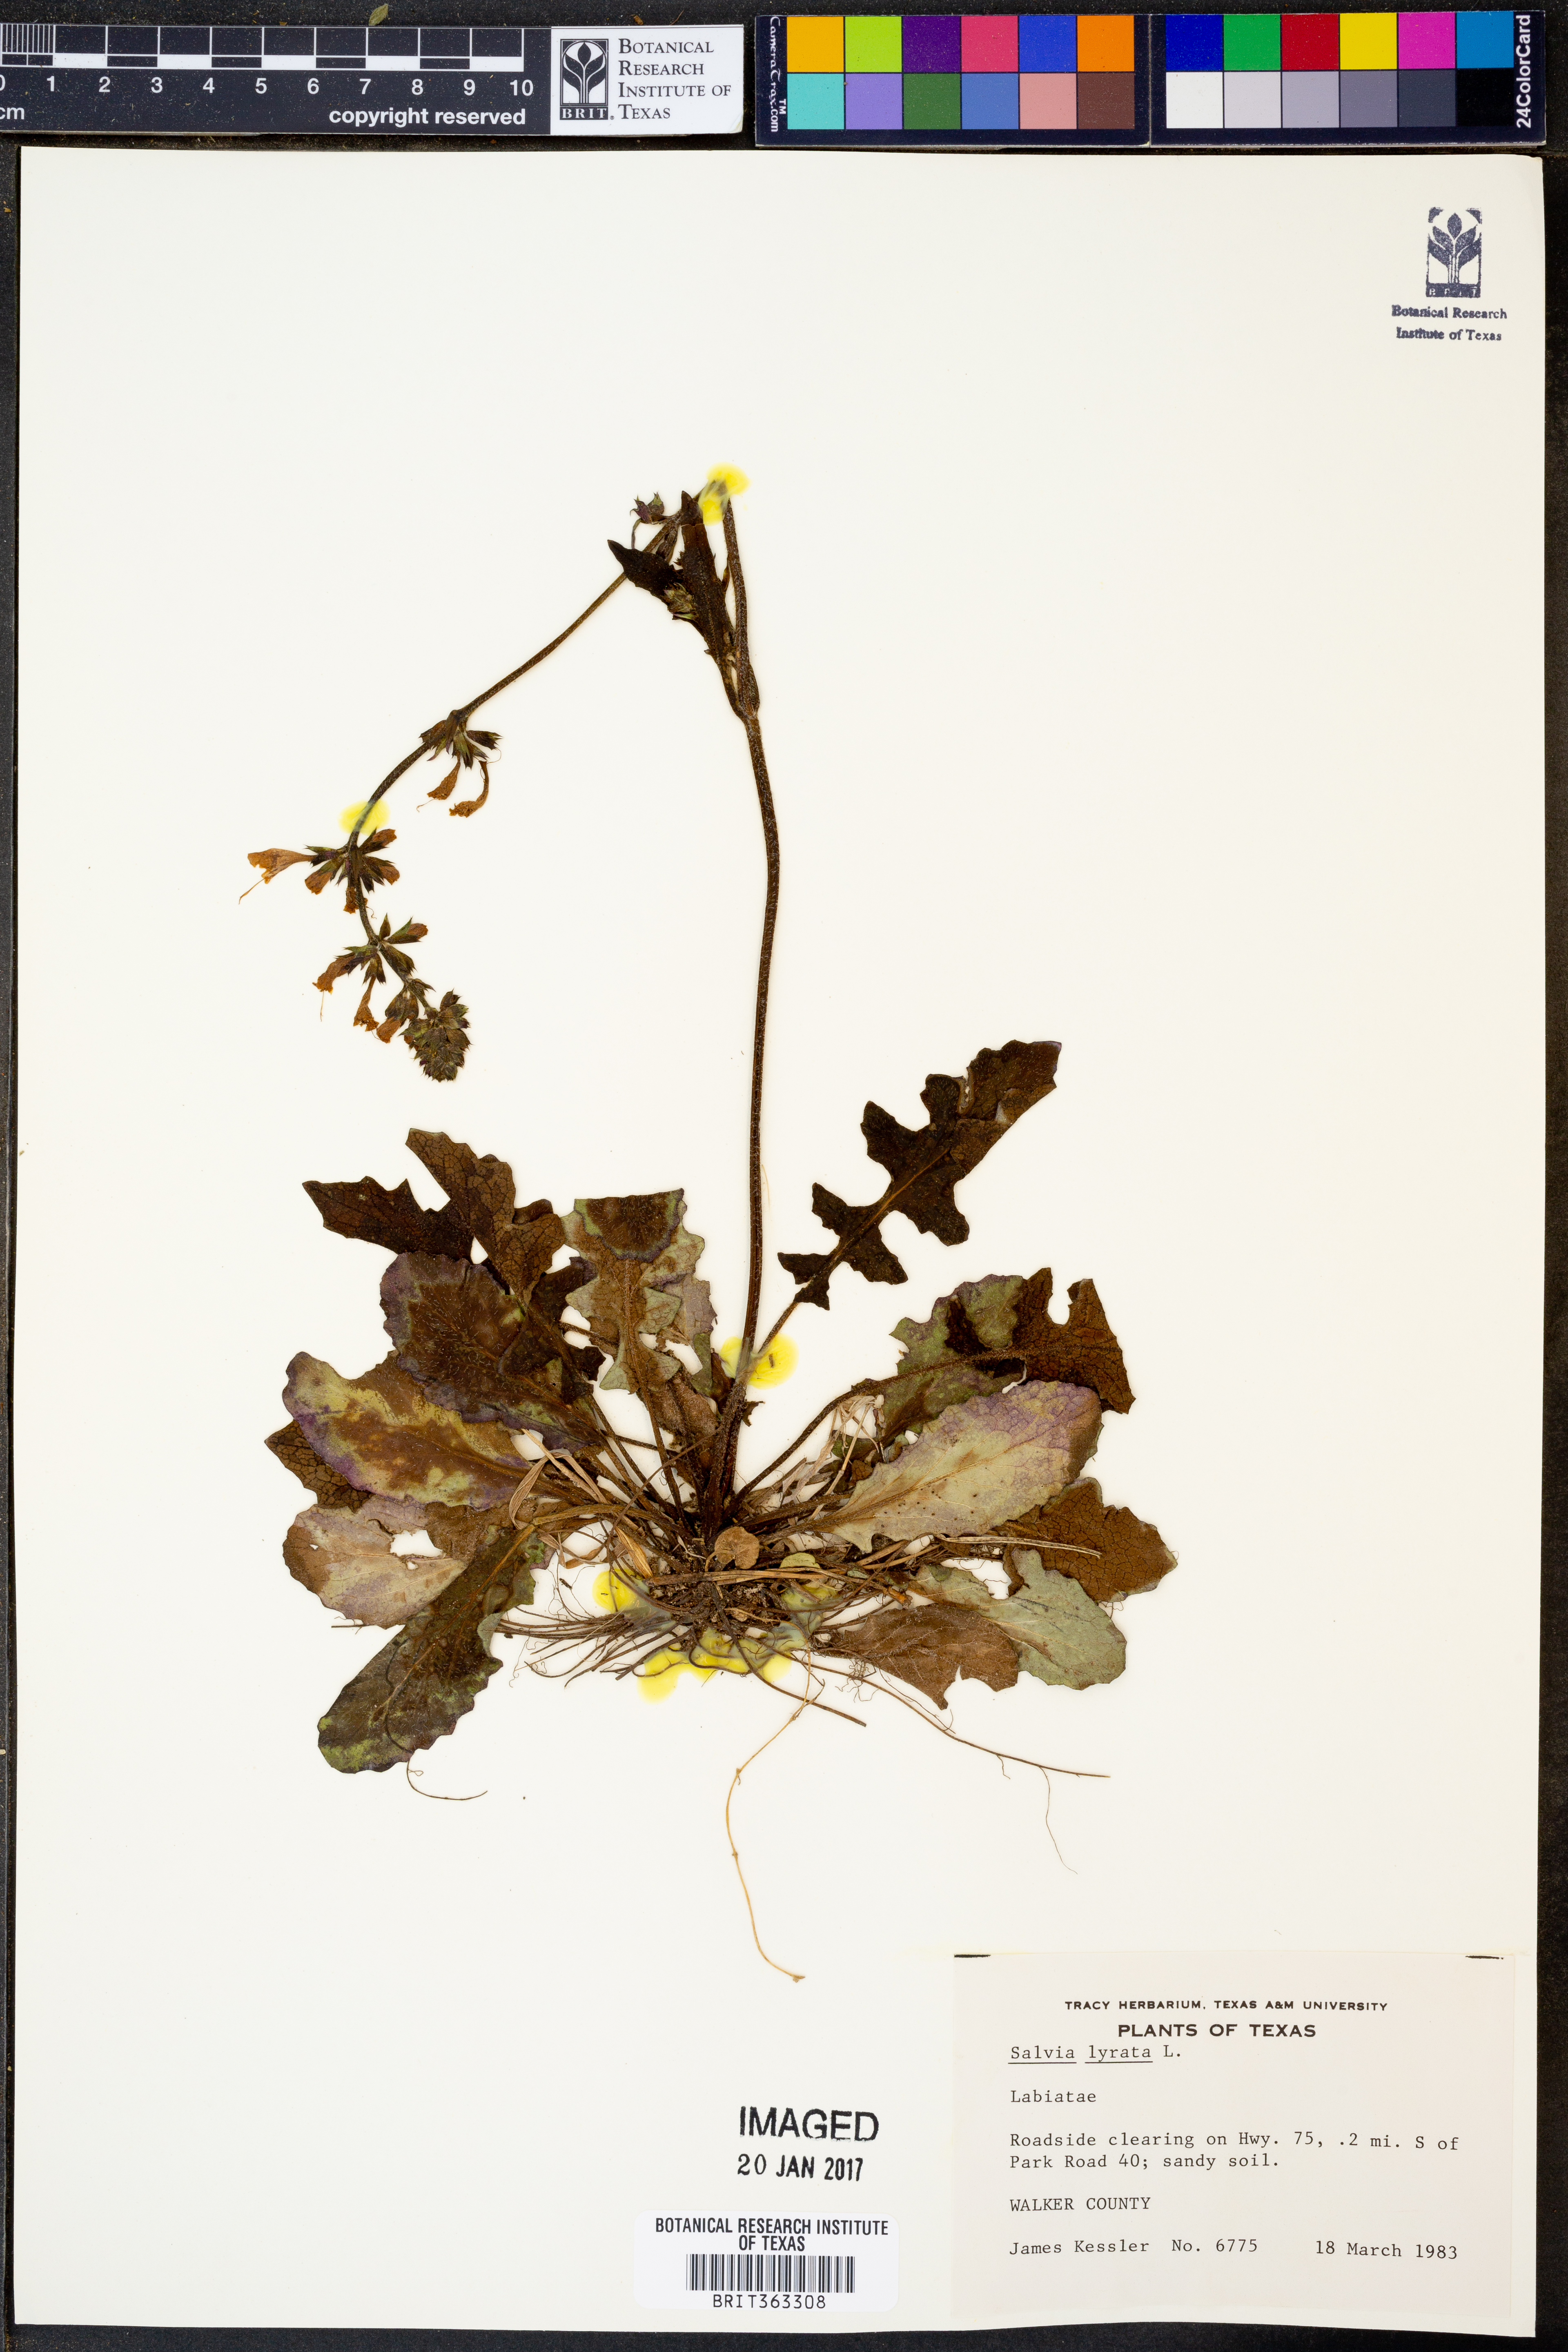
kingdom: Plantae
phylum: Tracheophyta
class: Magnoliopsida
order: Lamiales
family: Lamiaceae
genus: Salvia
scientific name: Salvia lyrata
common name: Cancerweed
